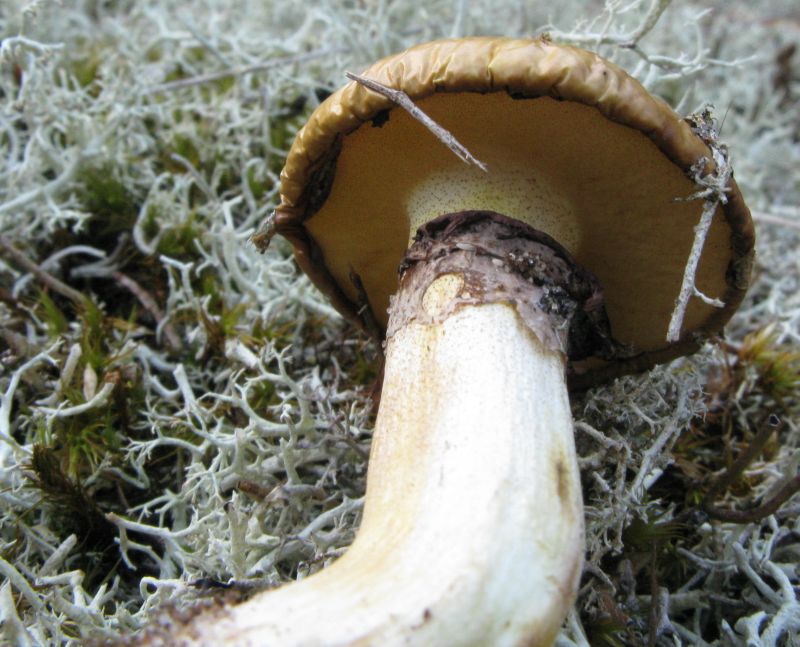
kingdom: Fungi
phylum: Basidiomycota
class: Agaricomycetes
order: Boletales
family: Suillaceae
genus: Suillus
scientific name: Suillus luteus
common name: brungul slimrørhat
